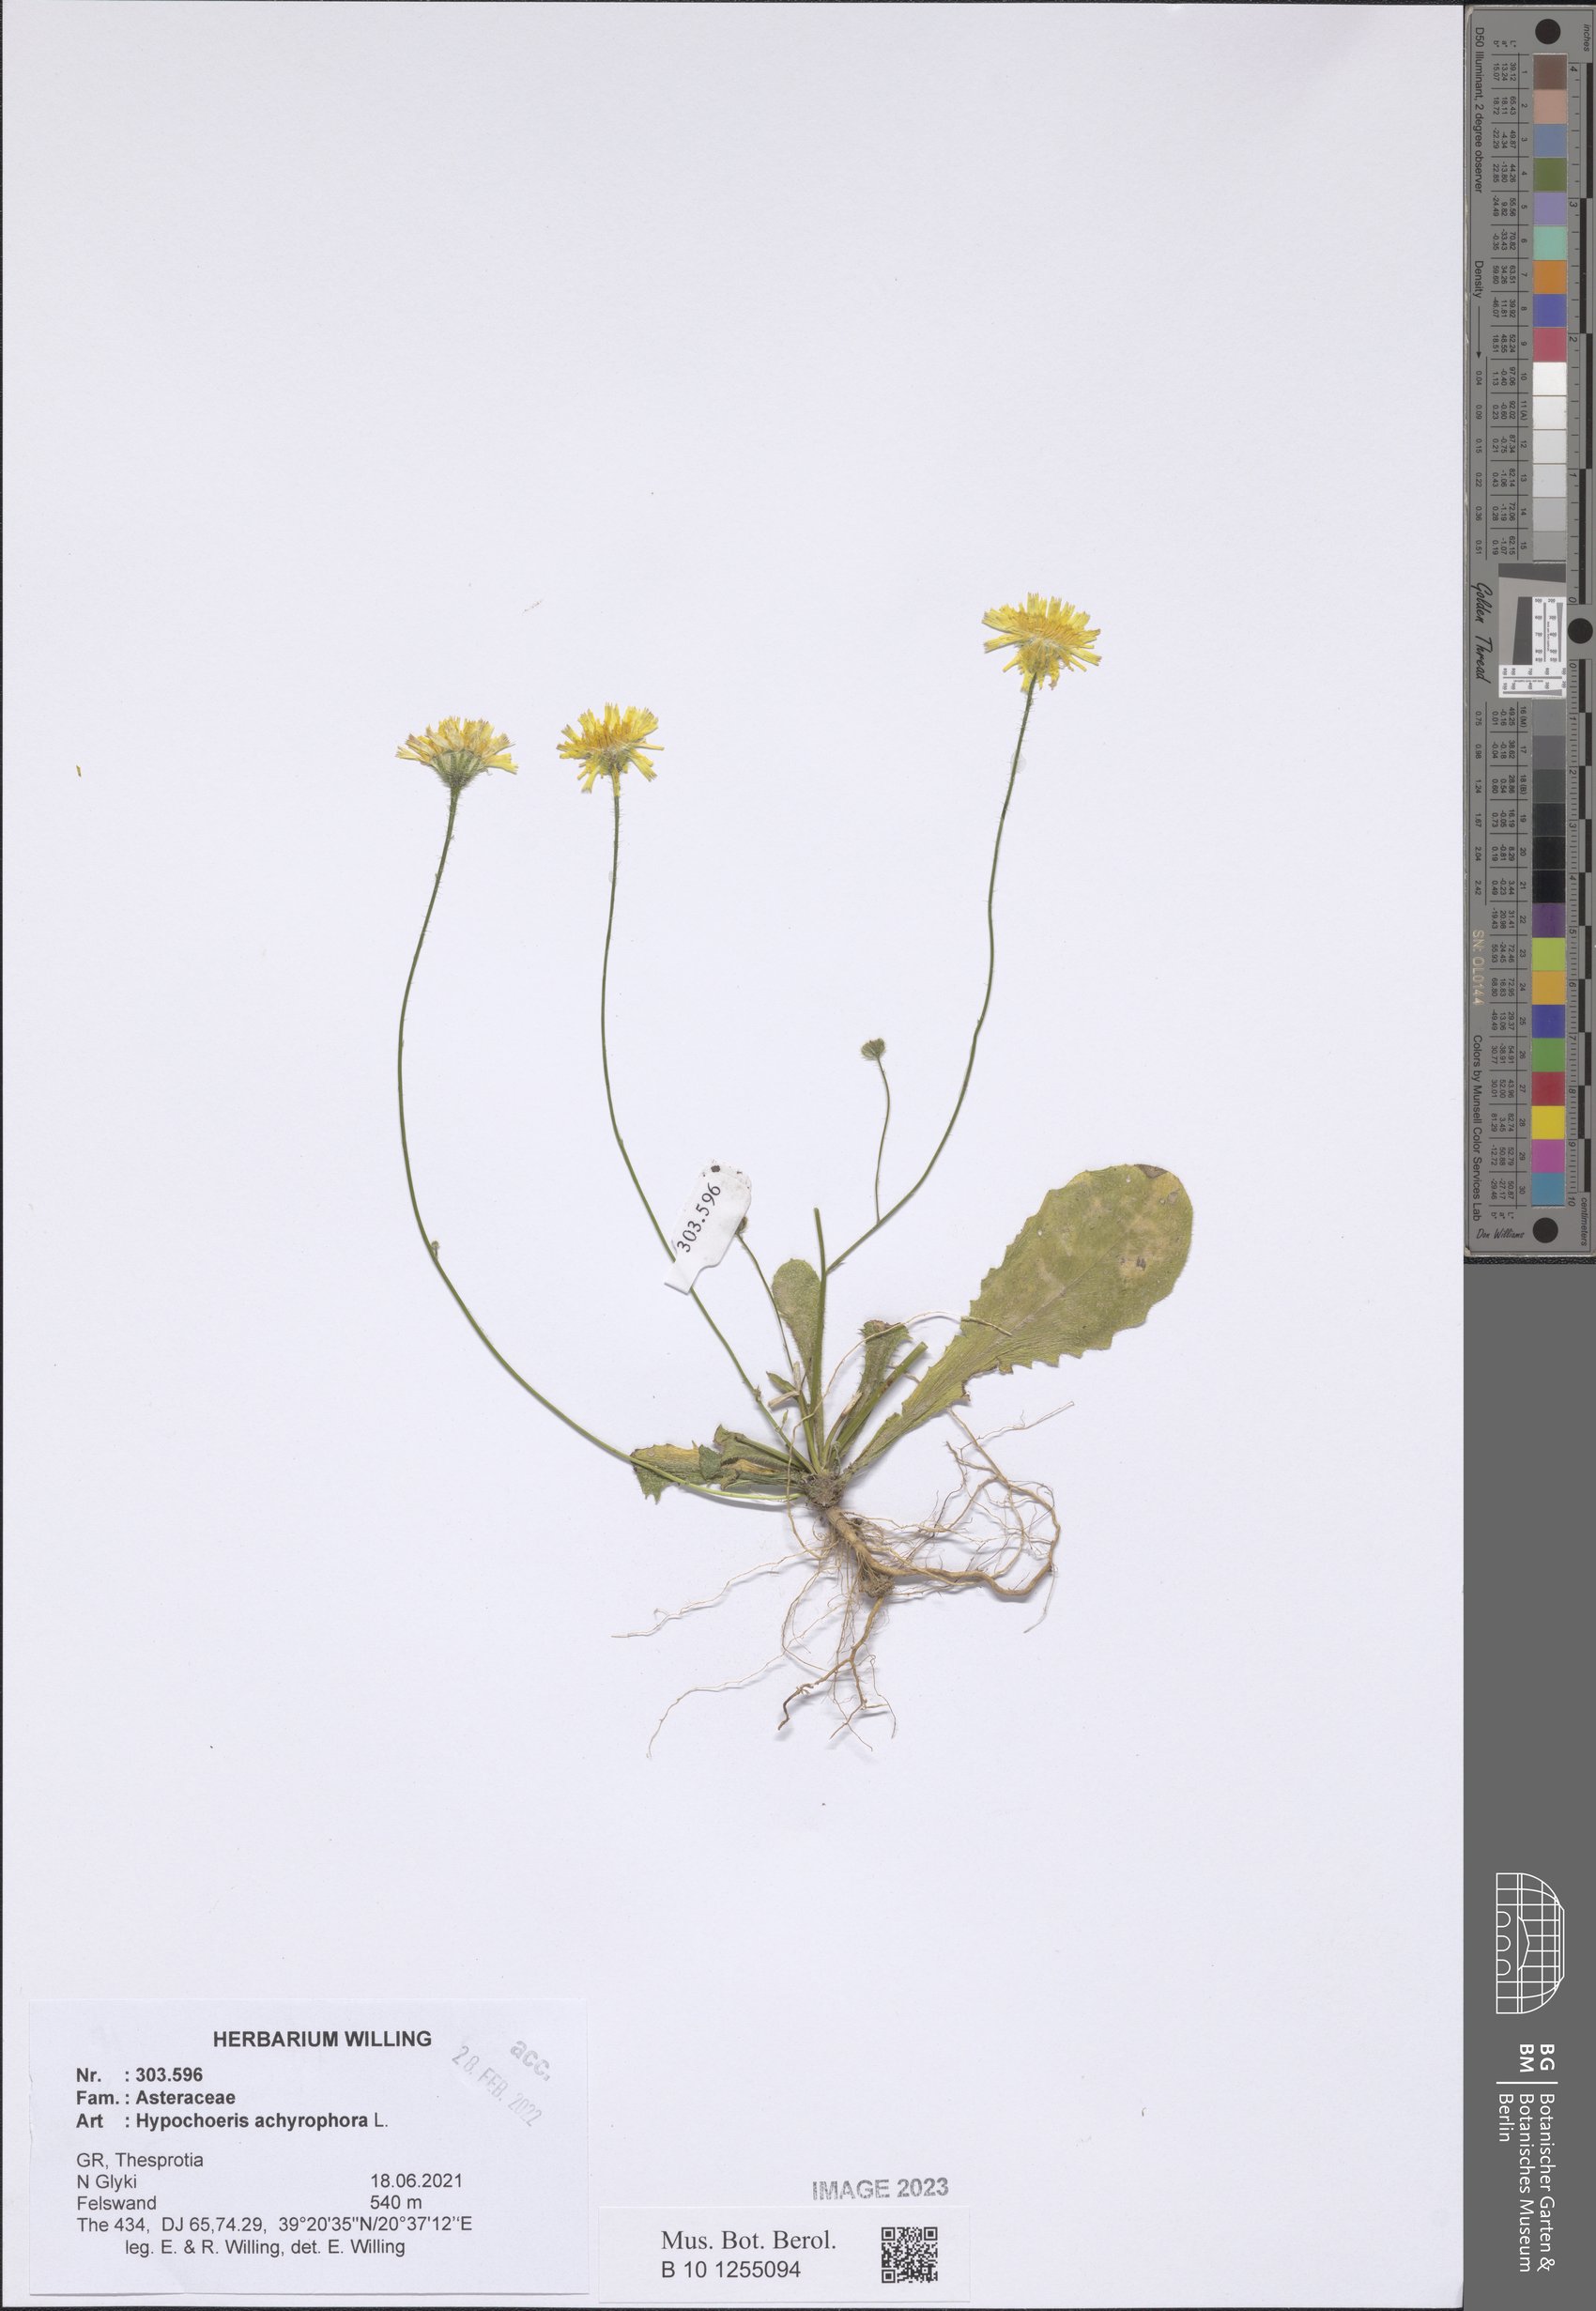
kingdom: Plantae
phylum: Tracheophyta
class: Magnoliopsida
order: Asterales
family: Asteraceae
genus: Achyrophorus
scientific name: Achyrophorus valdesii
